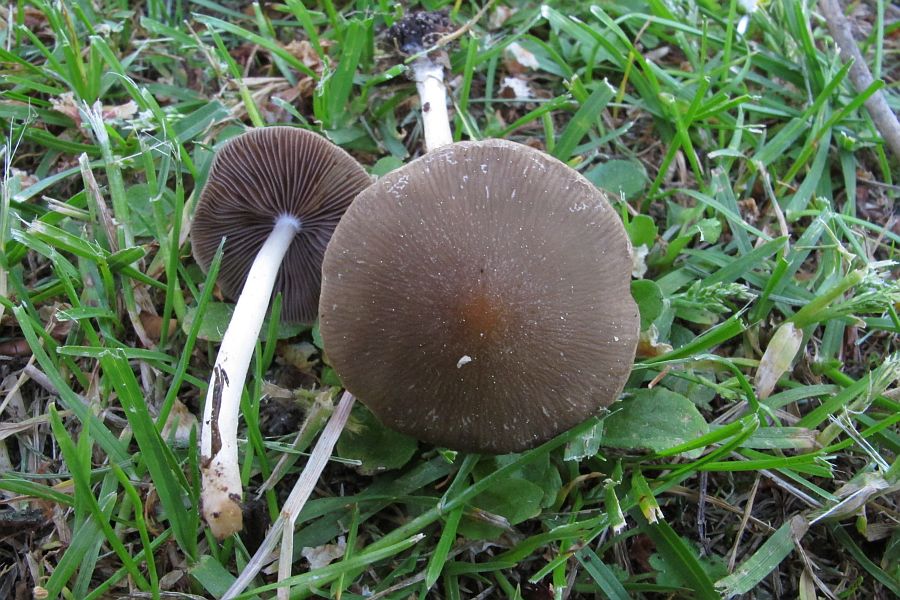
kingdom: Fungi
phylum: Basidiomycota
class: Agaricomycetes
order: Agaricales
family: Psathyrellaceae
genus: Psathyrella
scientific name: Psathyrella spadiceogrisea
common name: gråbrun mørkhat
